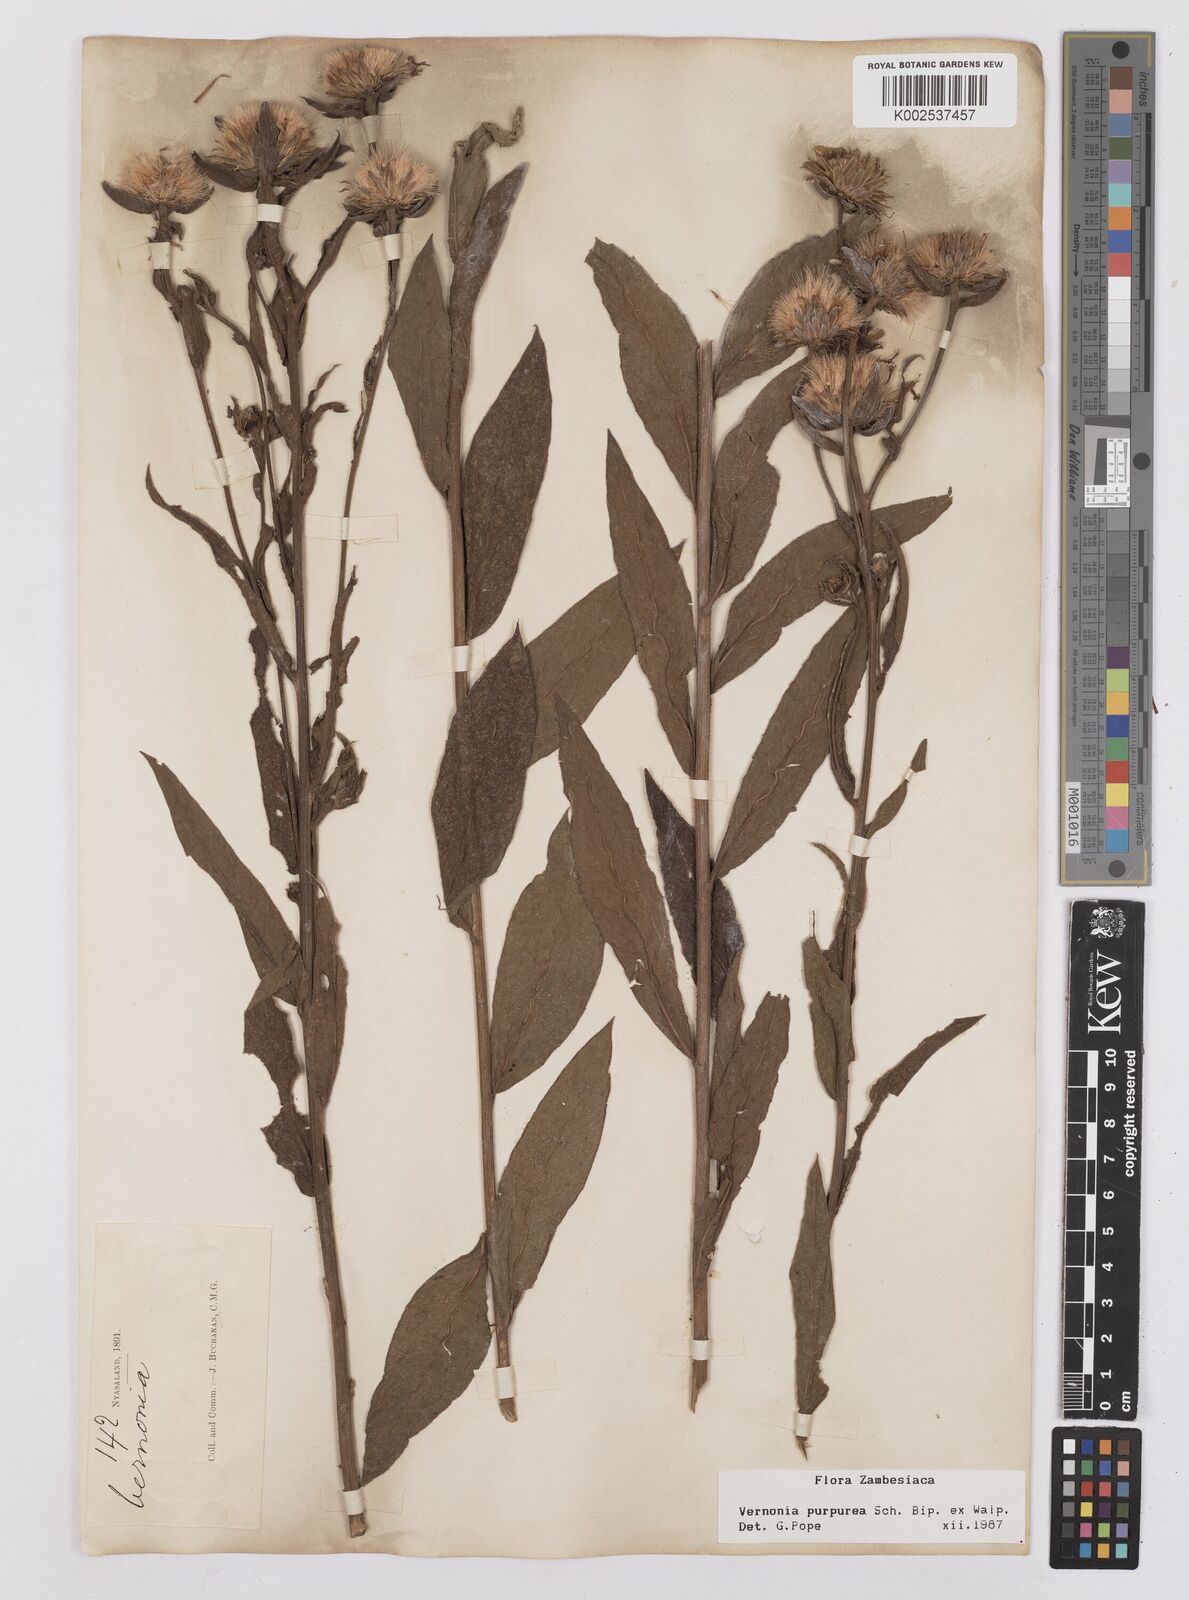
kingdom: Plantae
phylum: Tracheophyta
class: Magnoliopsida
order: Asterales
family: Asteraceae
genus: Nothovernonia
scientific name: Nothovernonia purpurea
